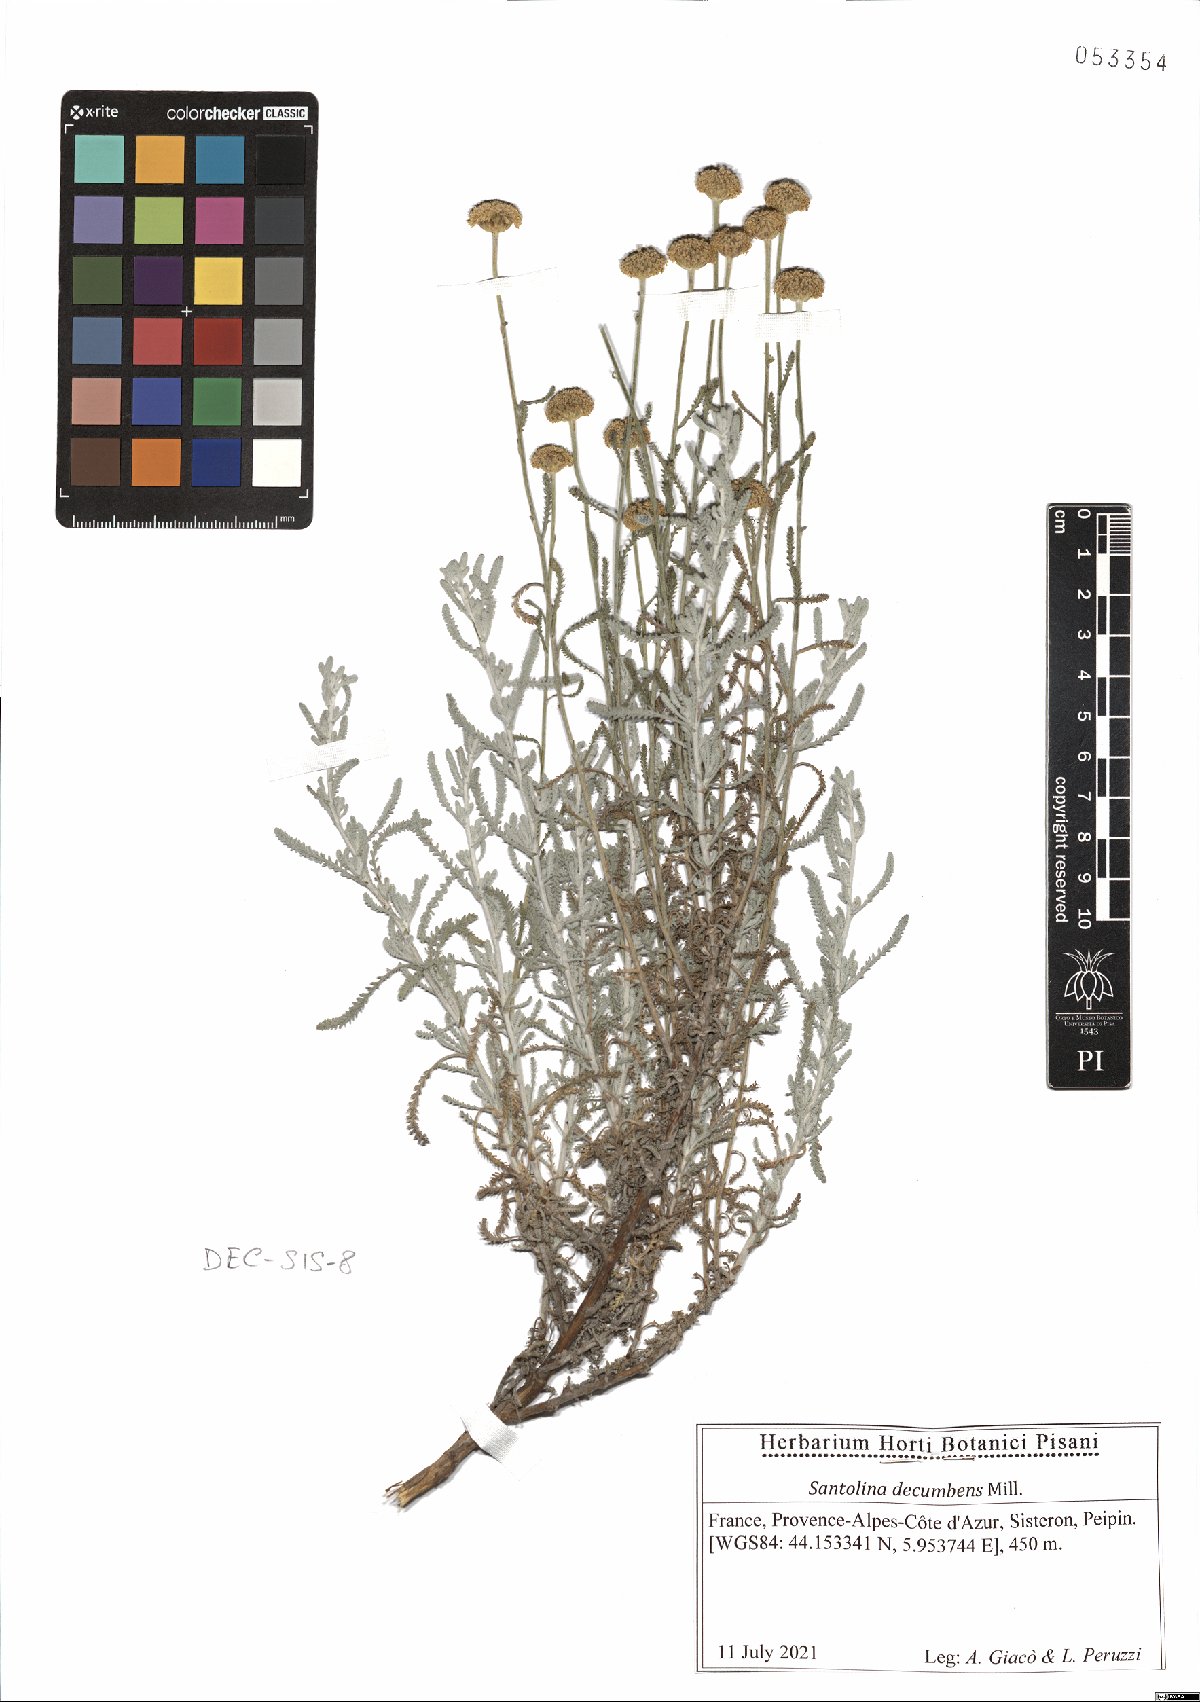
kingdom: Plantae
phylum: Tracheophyta
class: Magnoliopsida
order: Asterales
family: Asteraceae
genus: Santolina
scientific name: Santolina decumbens
